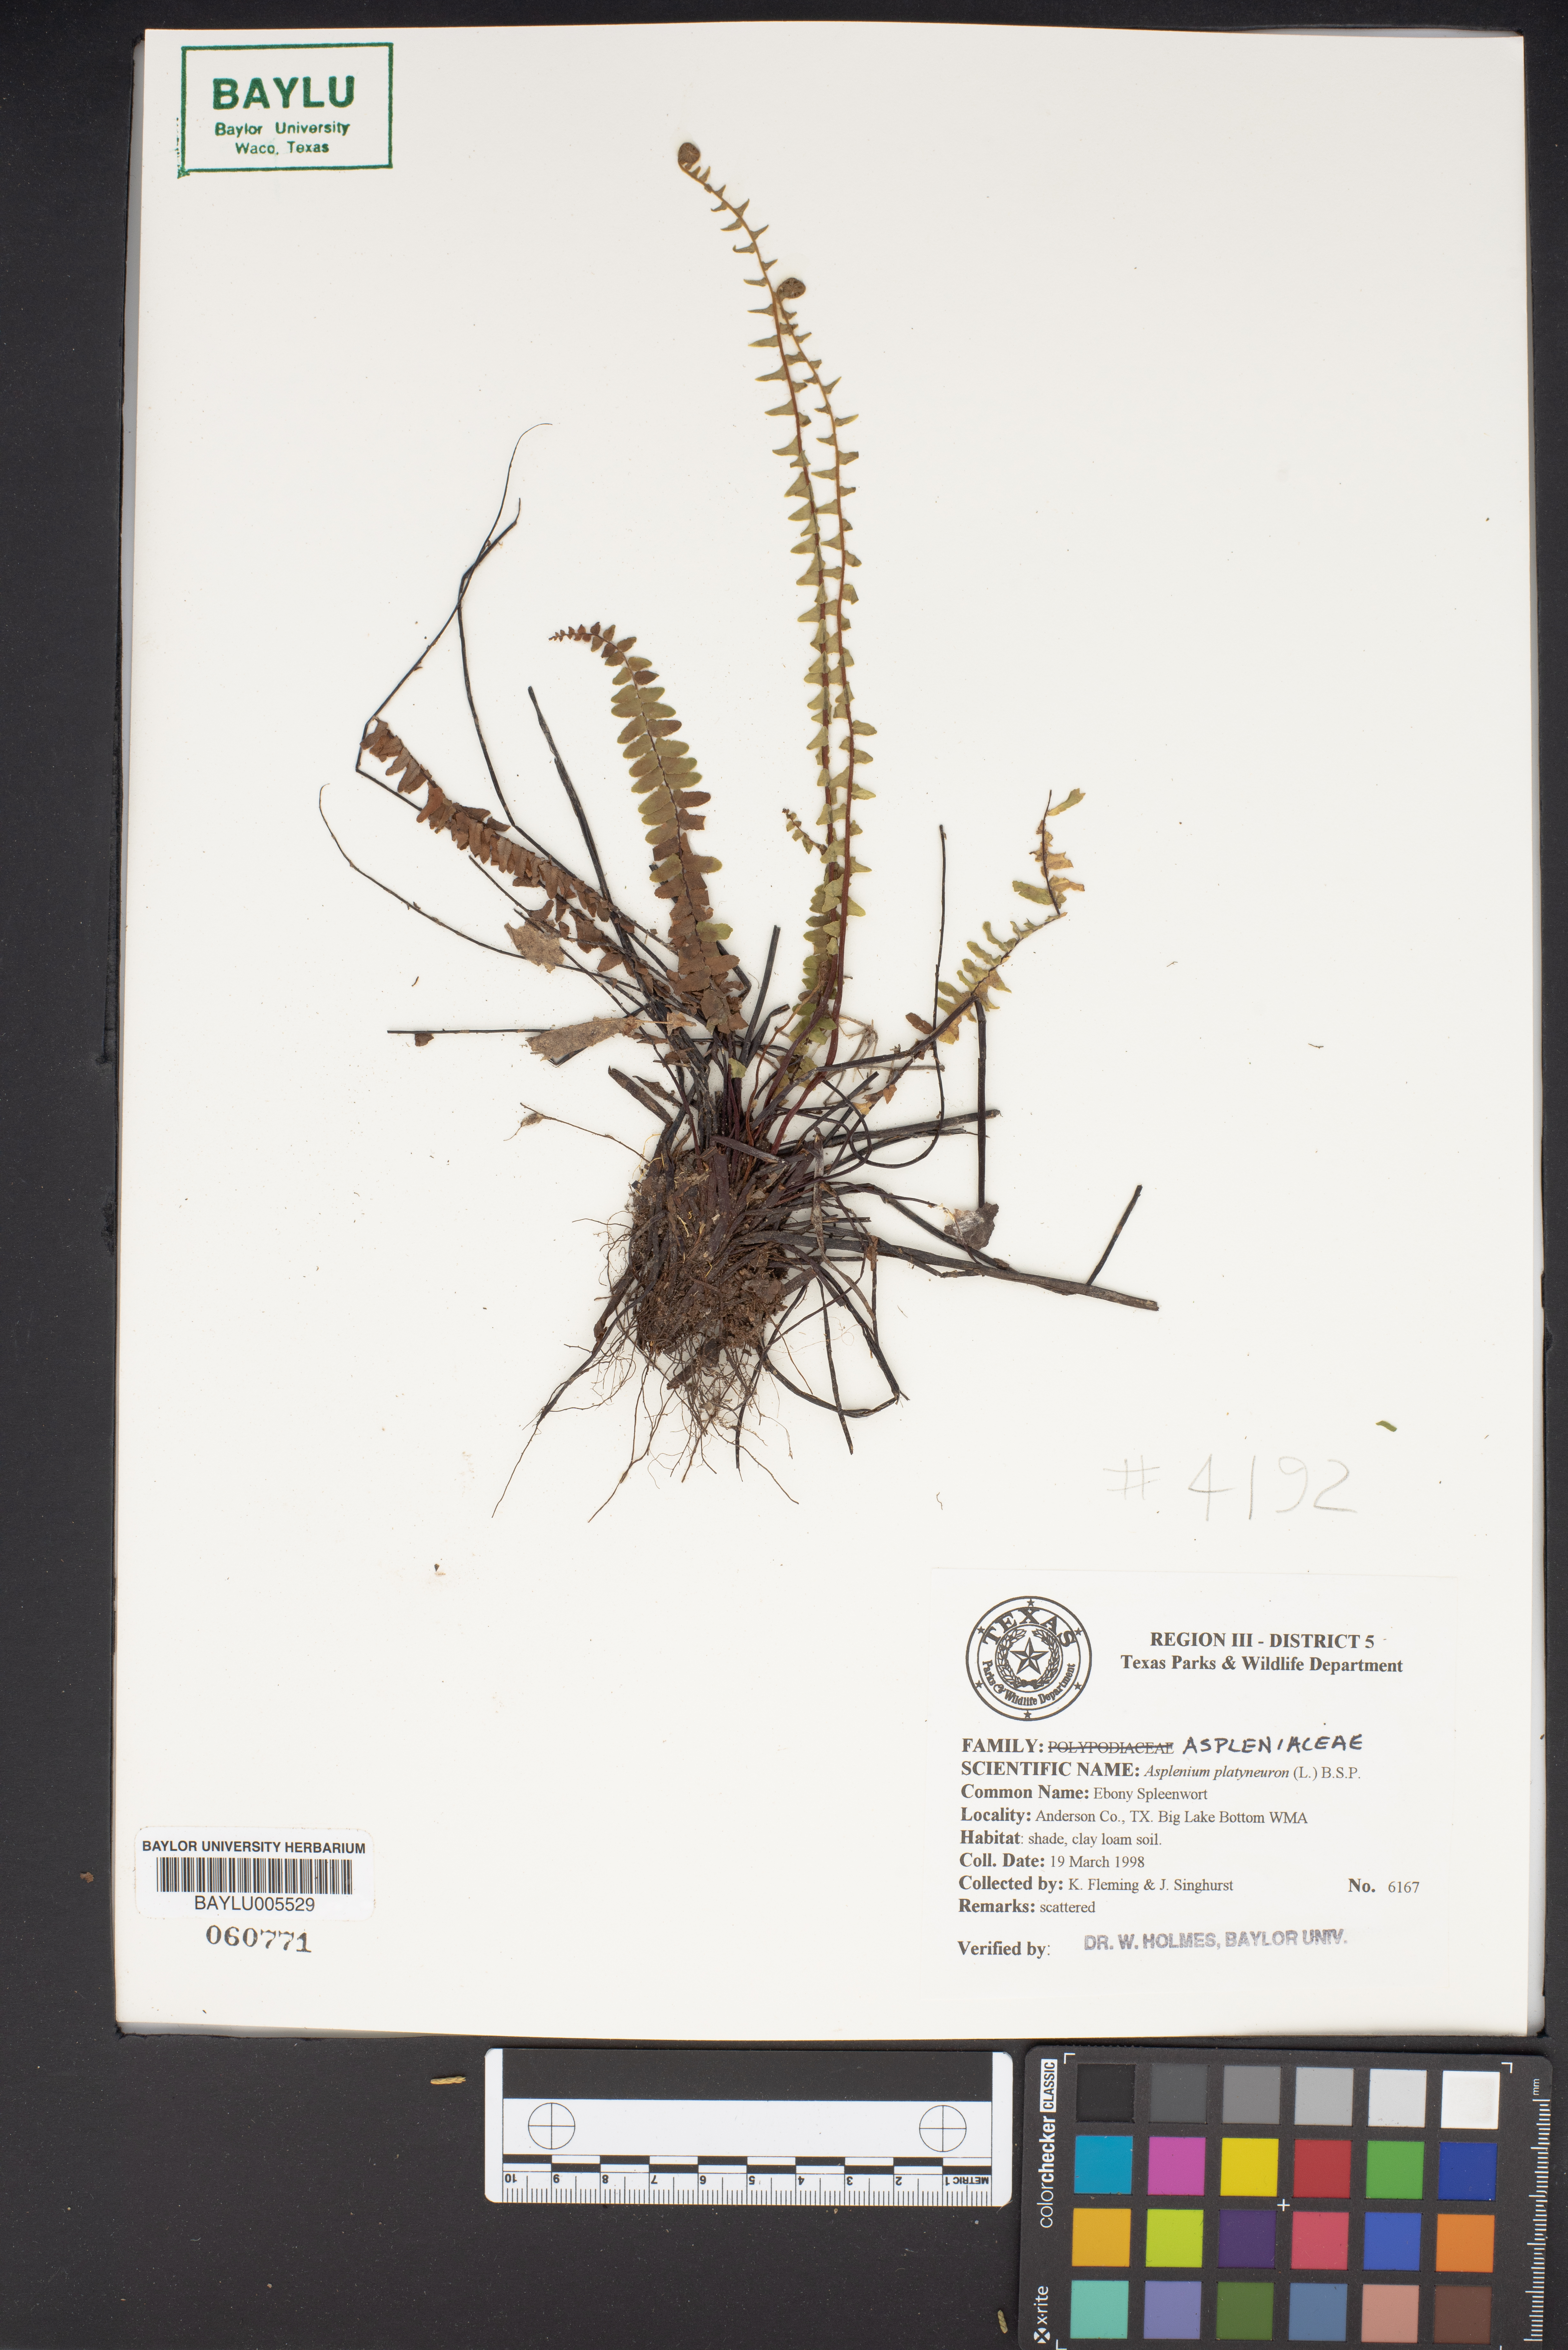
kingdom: Plantae
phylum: Tracheophyta
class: Polypodiopsida
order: Polypodiales
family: Aspleniaceae
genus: Asplenium
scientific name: Asplenium platyneuron
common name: Ebony spleenwort
